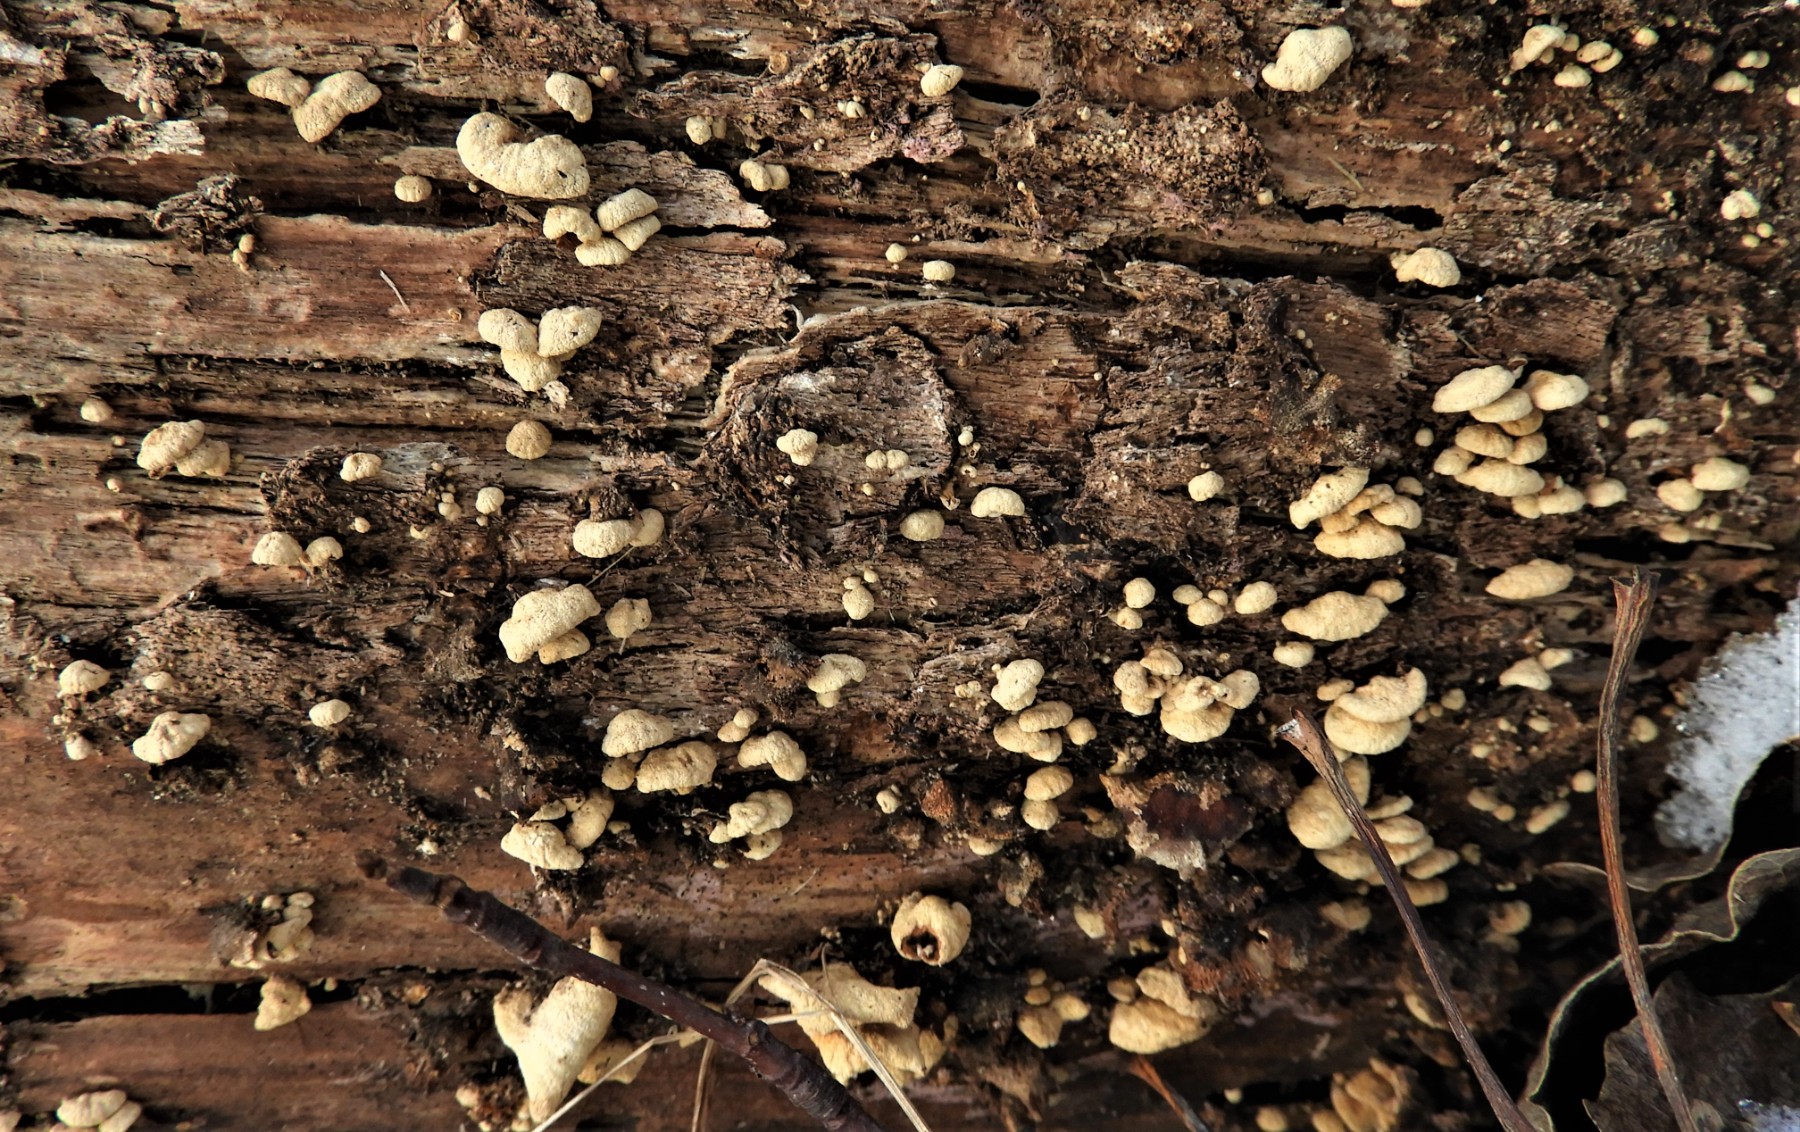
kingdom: Fungi
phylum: Basidiomycota
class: Agaricomycetes
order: Agaricales
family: Mycenaceae
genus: Panellus
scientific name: Panellus stipticus
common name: kliddet epaulethat
